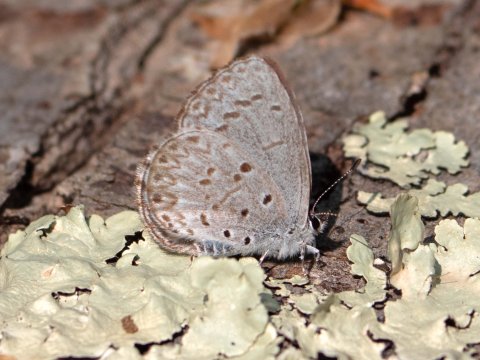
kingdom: Animalia
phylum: Arthropoda
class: Insecta
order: Lepidoptera
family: Lycaenidae
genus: Celastrina
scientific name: Celastrina lucia
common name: Northern Spring Azure
